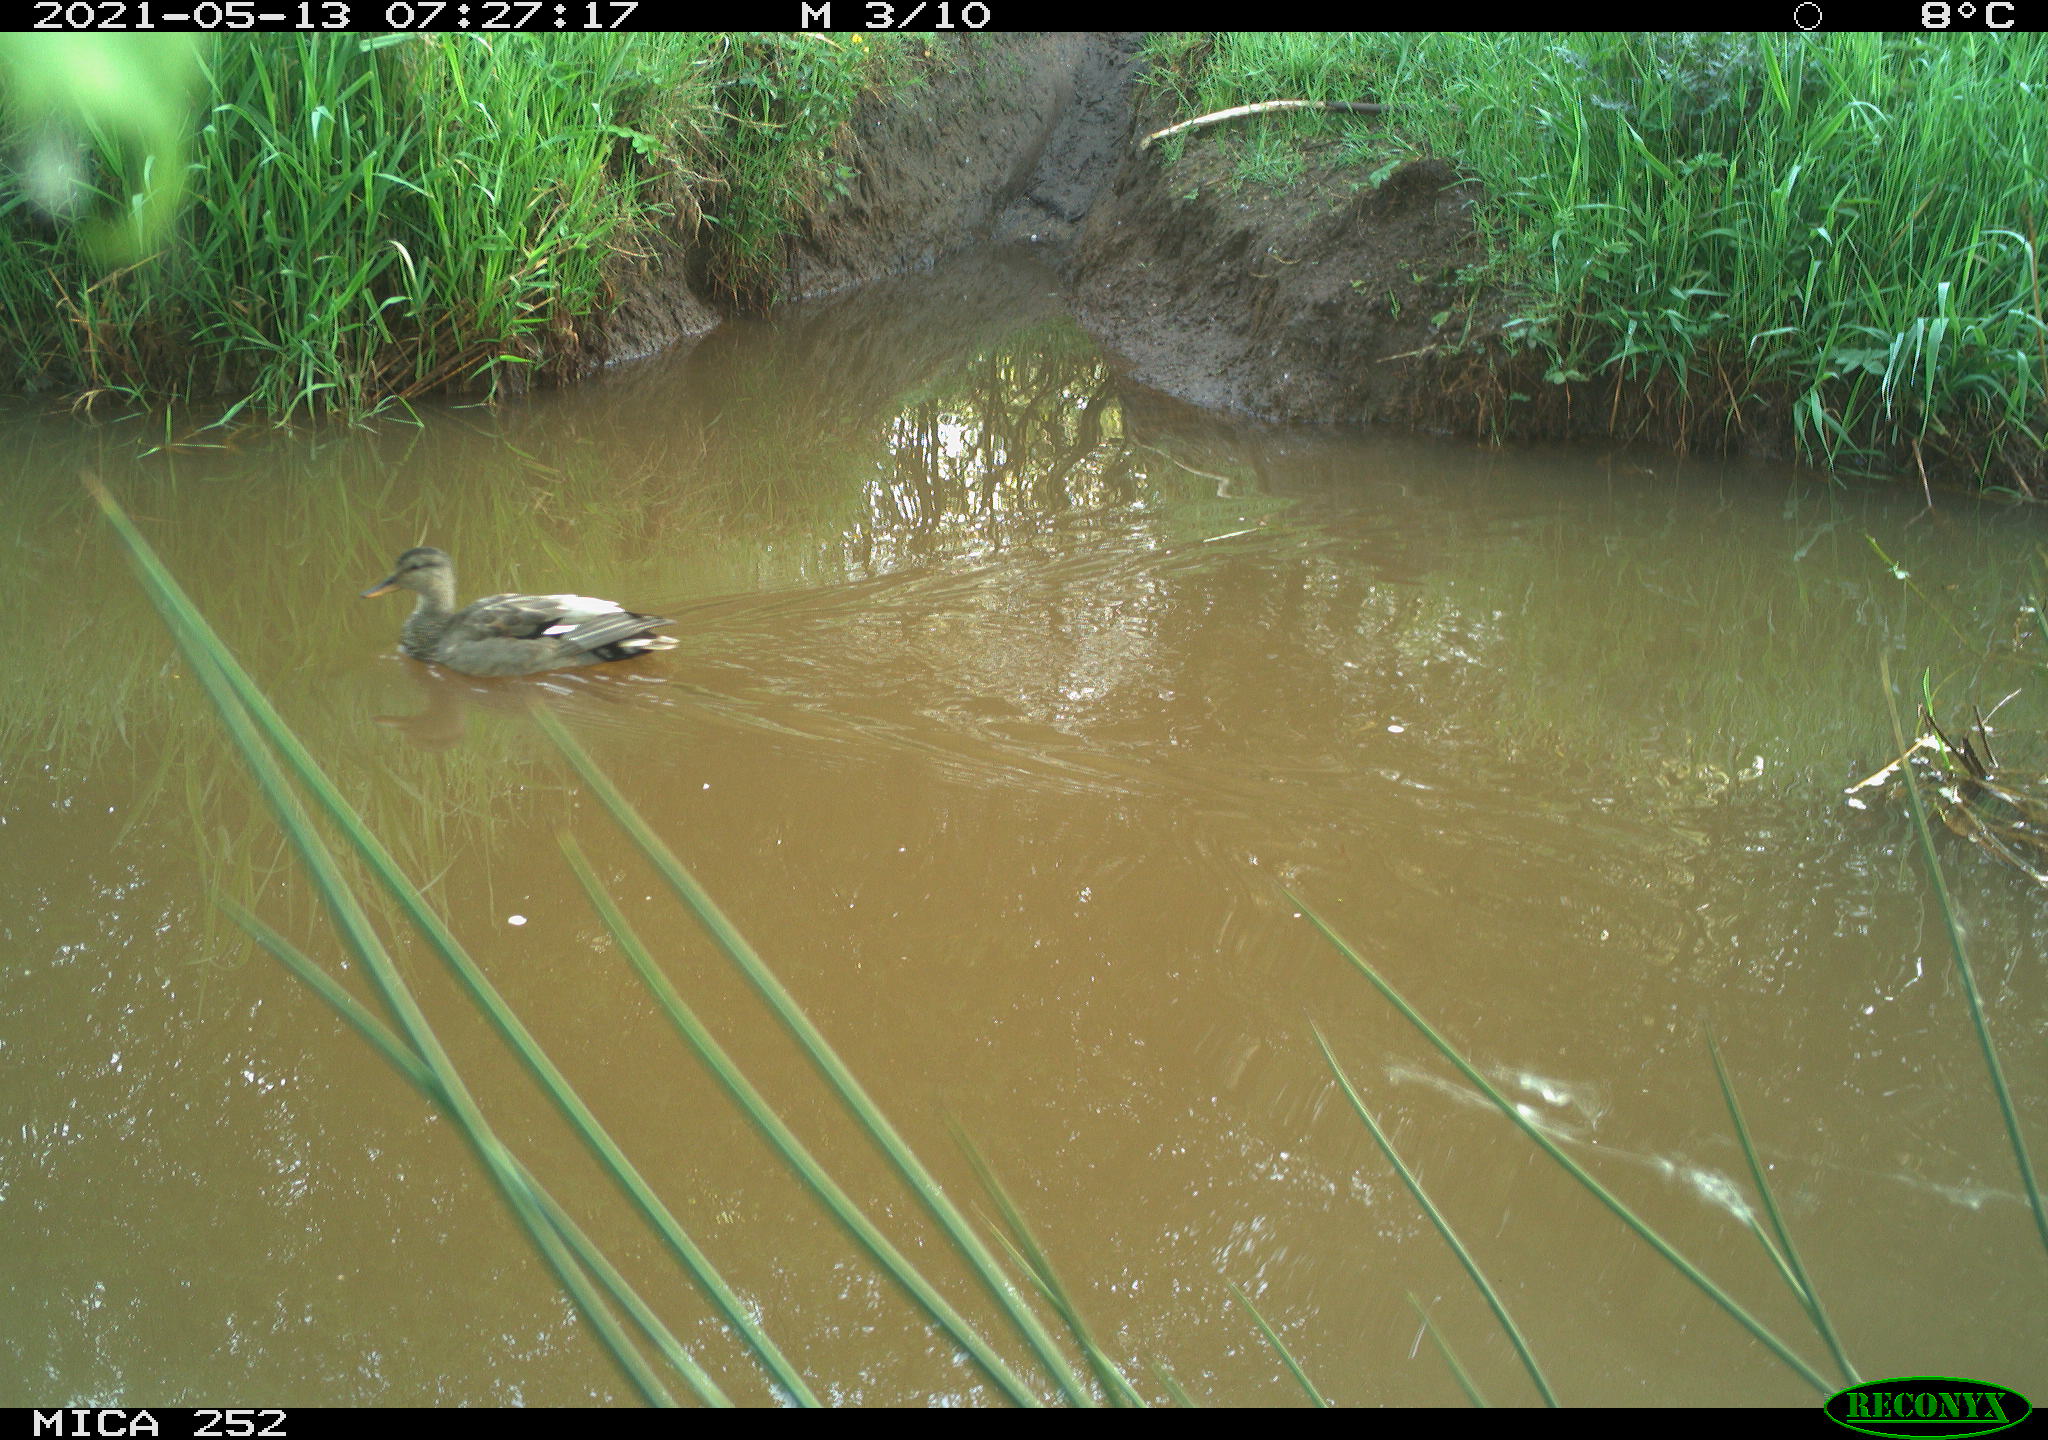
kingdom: Animalia
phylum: Chordata
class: Aves
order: Anseriformes
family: Anatidae
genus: Anas
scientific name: Anas
